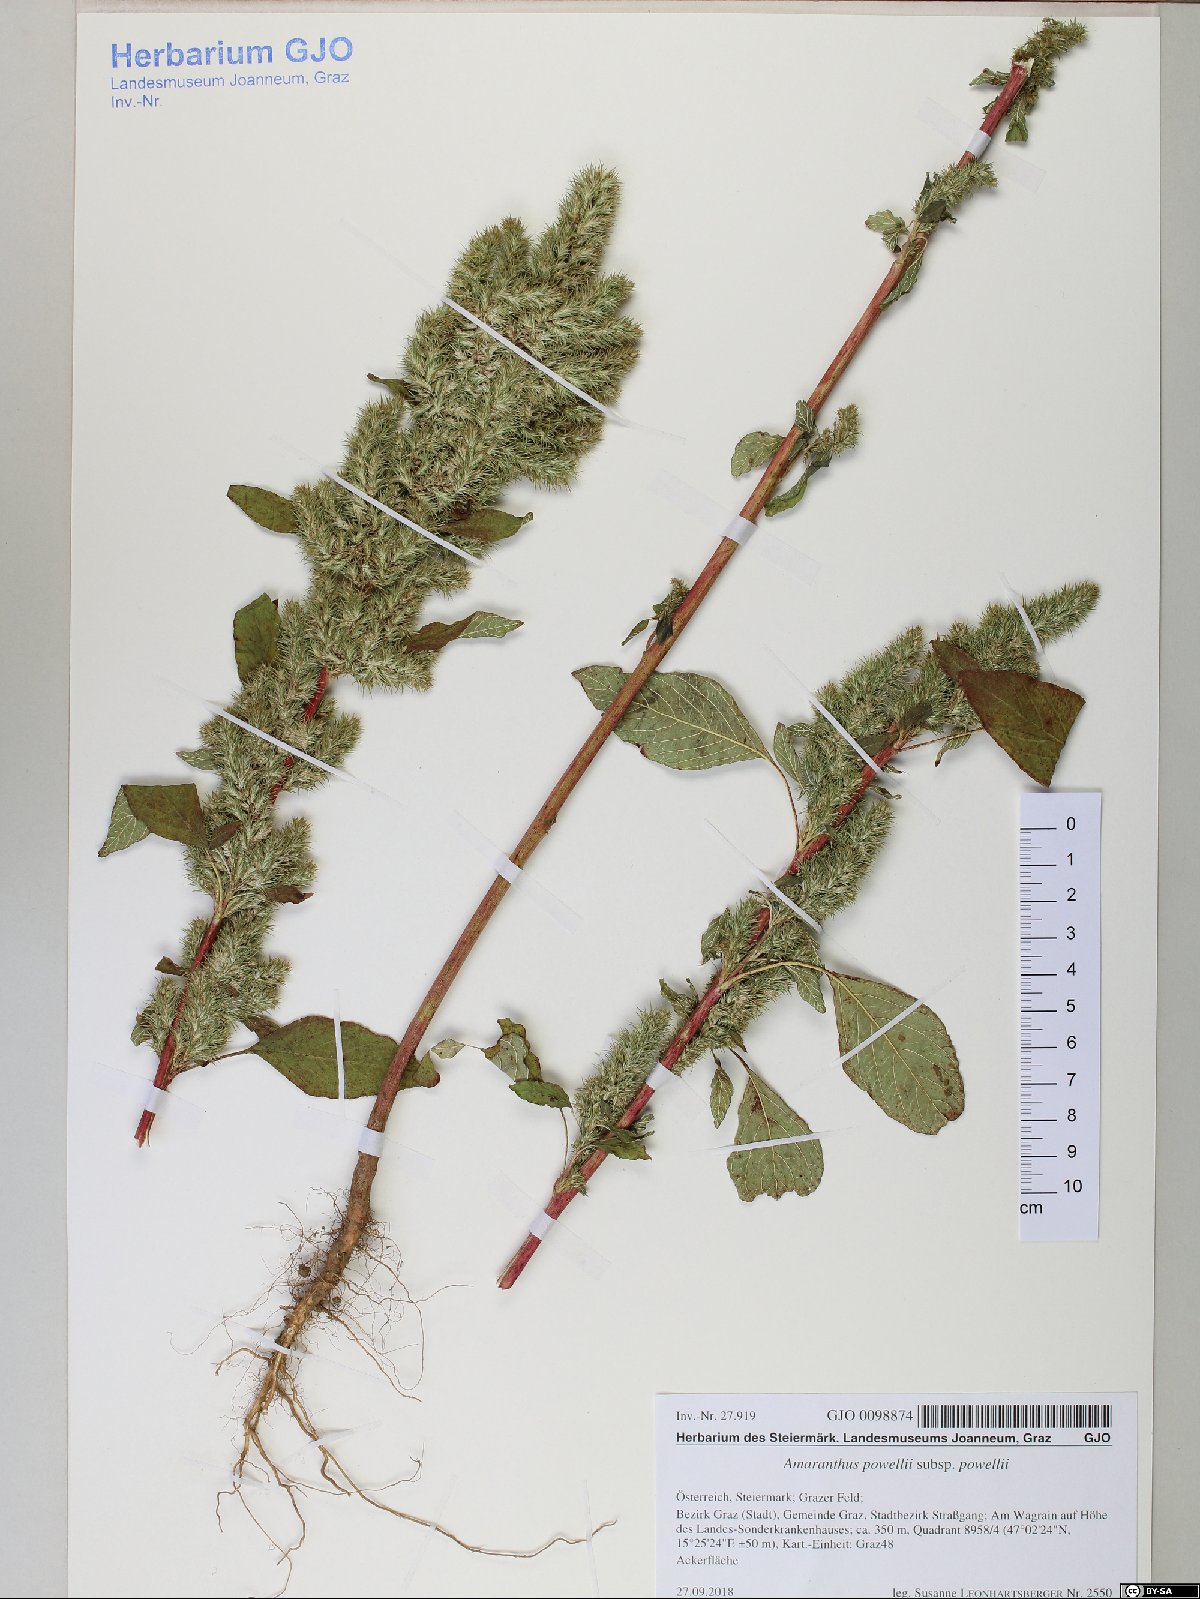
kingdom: Plantae
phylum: Tracheophyta
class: Magnoliopsida
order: Caryophyllales
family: Amaranthaceae
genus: Amaranthus
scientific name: Amaranthus powellii
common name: Powell's amaranth
